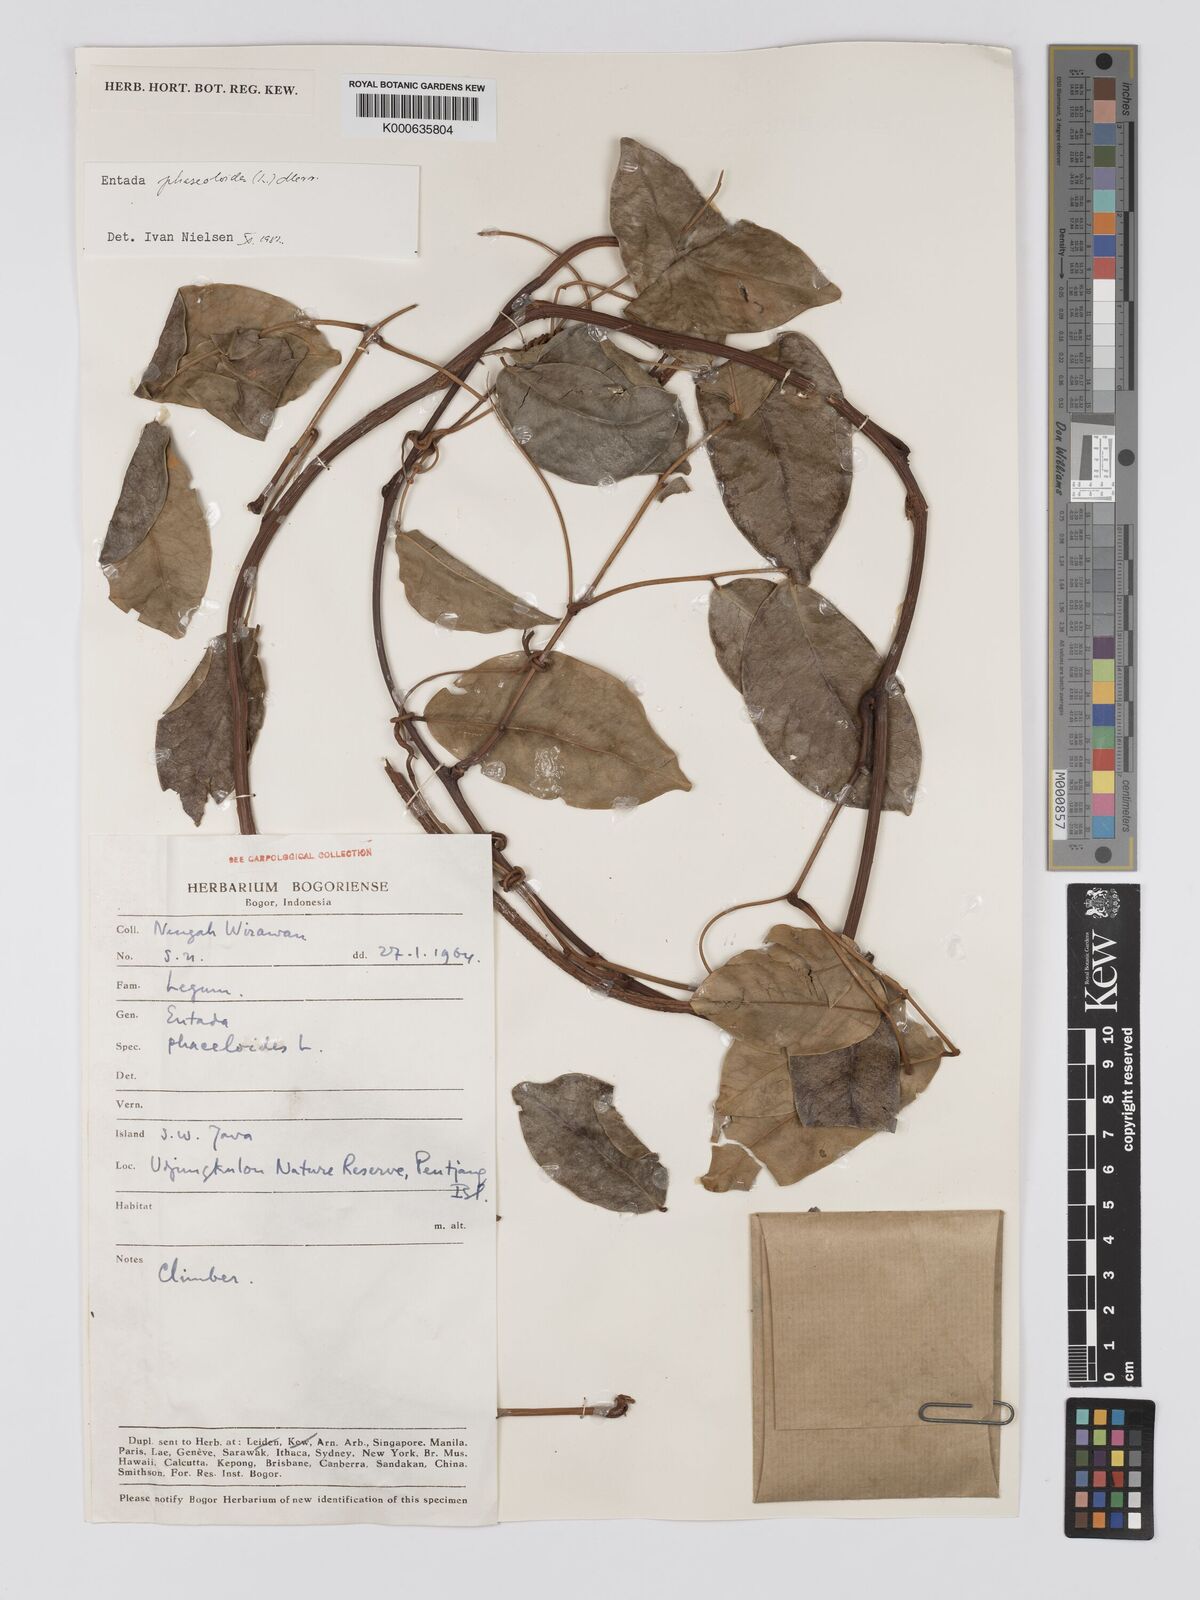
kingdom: Plantae
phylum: Tracheophyta
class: Magnoliopsida
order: Fabales
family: Fabaceae
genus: Entada
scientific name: Entada phaseoloides
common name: Matchbox-bean
